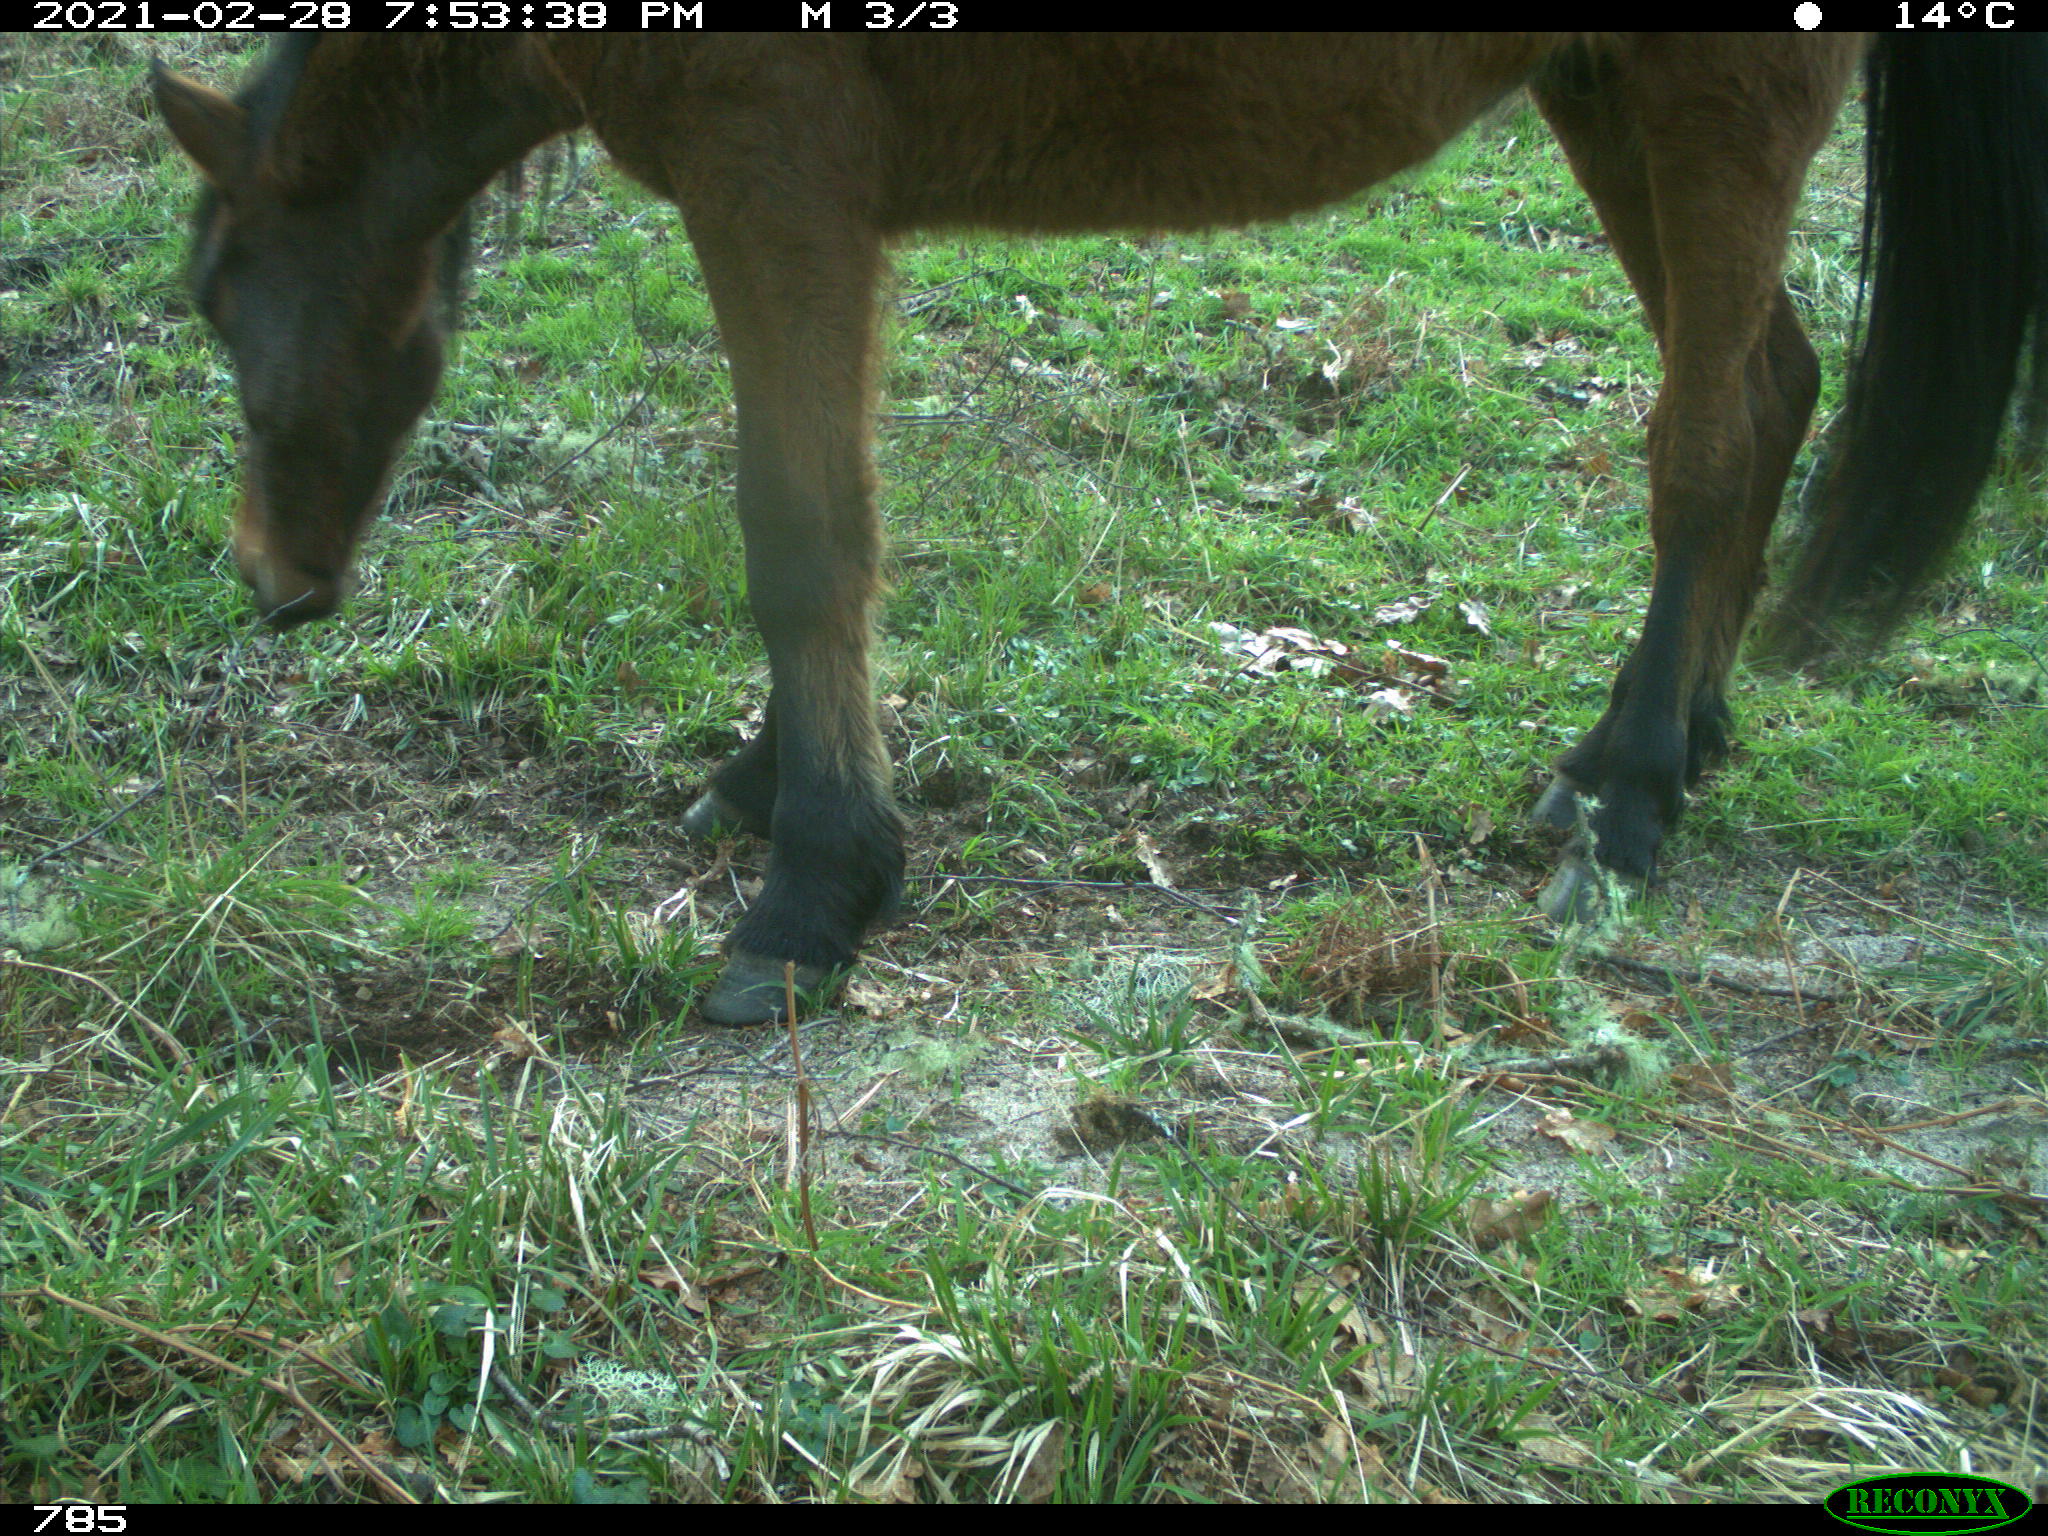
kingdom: Animalia
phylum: Chordata
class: Mammalia
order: Perissodactyla
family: Equidae
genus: Equus
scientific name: Equus caballus
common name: Horse
